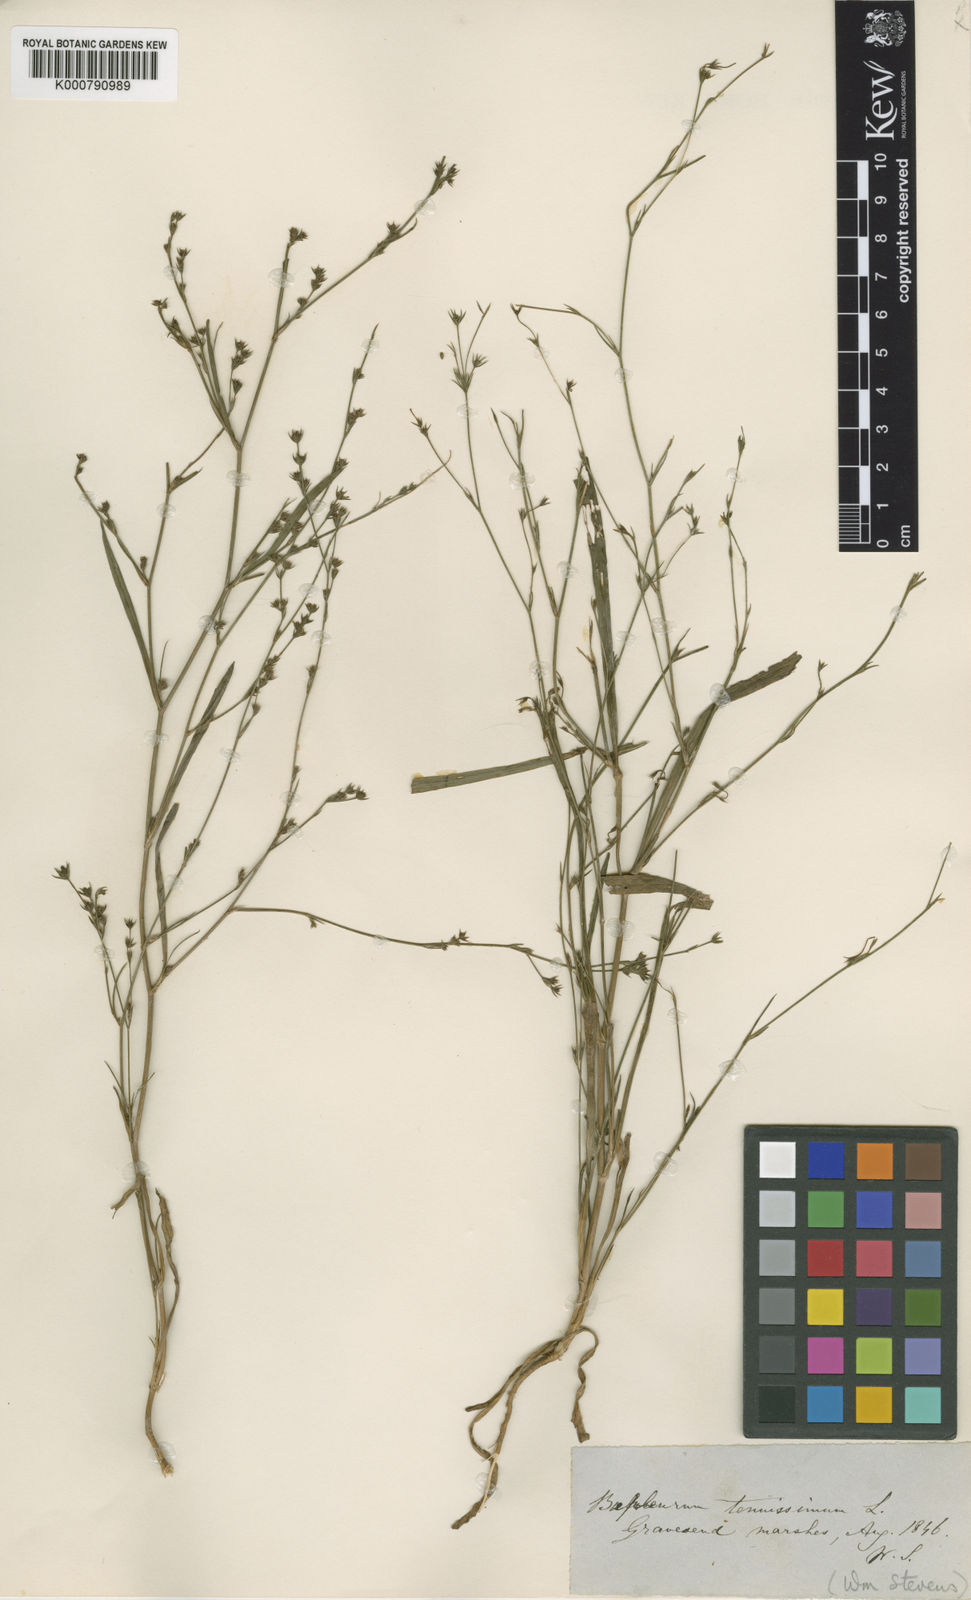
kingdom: Plantae
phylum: Tracheophyta
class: Magnoliopsida
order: Apiales
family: Apiaceae
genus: Bupleurum
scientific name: Bupleurum tenuissimum
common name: Slender hare's-ear
